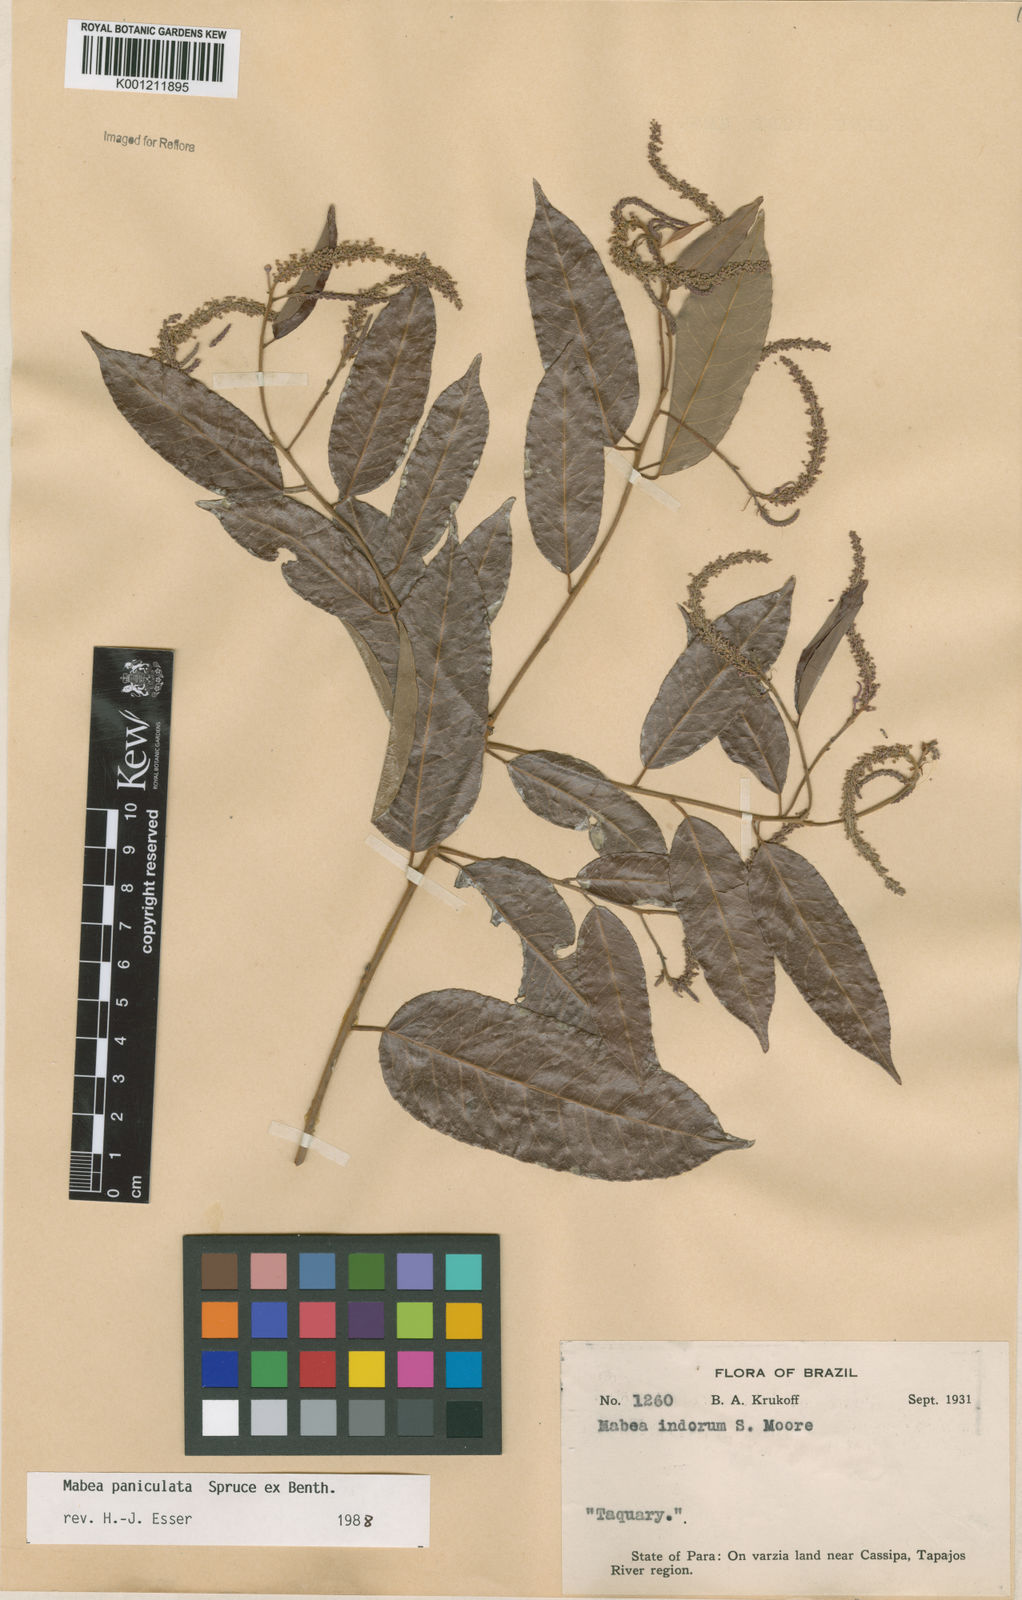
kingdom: Plantae
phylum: Tracheophyta
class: Magnoliopsida
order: Malpighiales
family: Euphorbiaceae
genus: Mabea
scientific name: Mabea paniculata
